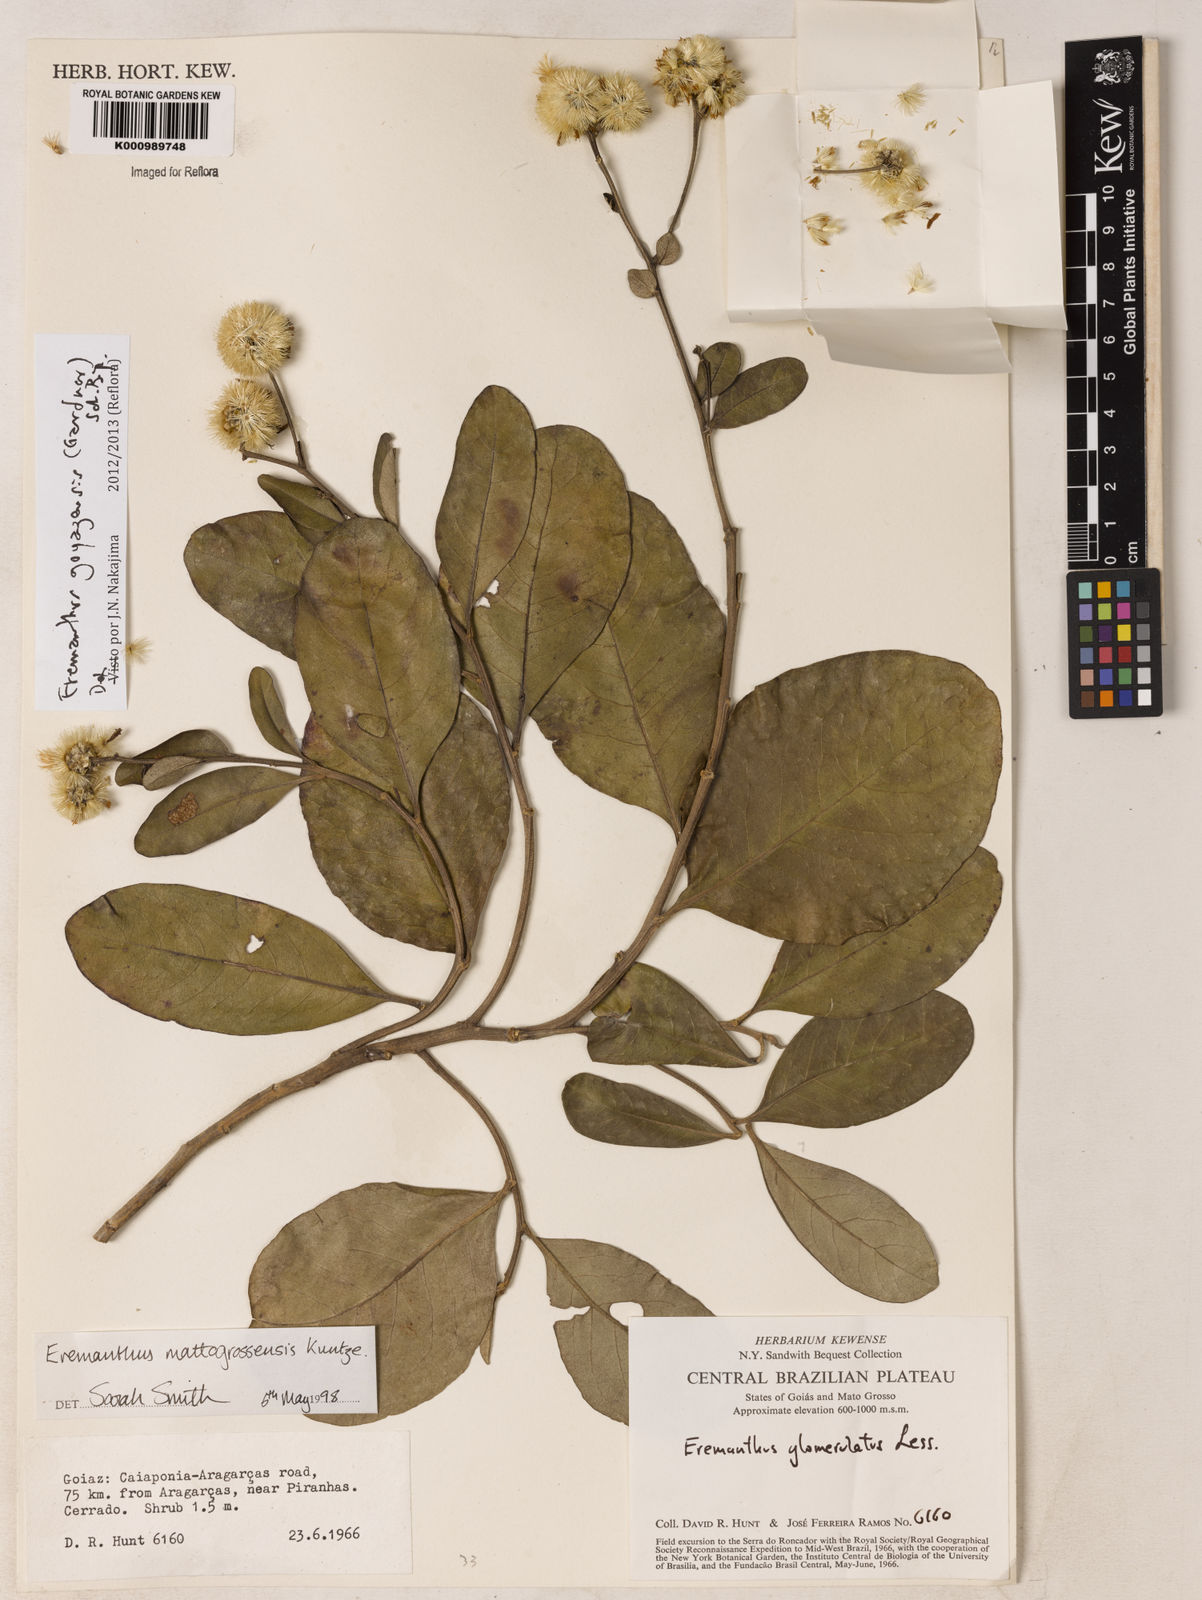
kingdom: Plantae
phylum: Tracheophyta
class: Magnoliopsida
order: Asterales
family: Asteraceae
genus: Eremanthus
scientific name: Eremanthus goyazensis
